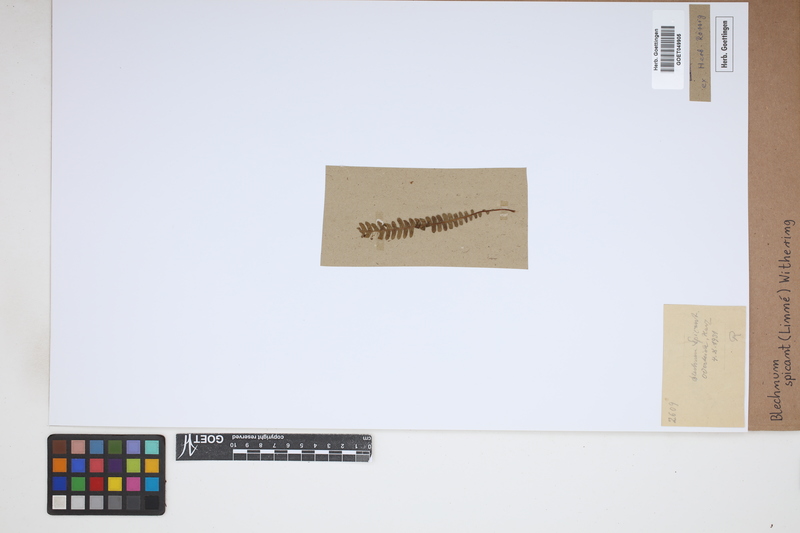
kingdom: Plantae
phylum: Tracheophyta
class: Polypodiopsida
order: Polypodiales
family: Blechnaceae
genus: Struthiopteris
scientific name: Struthiopteris spicant
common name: Deer fern
